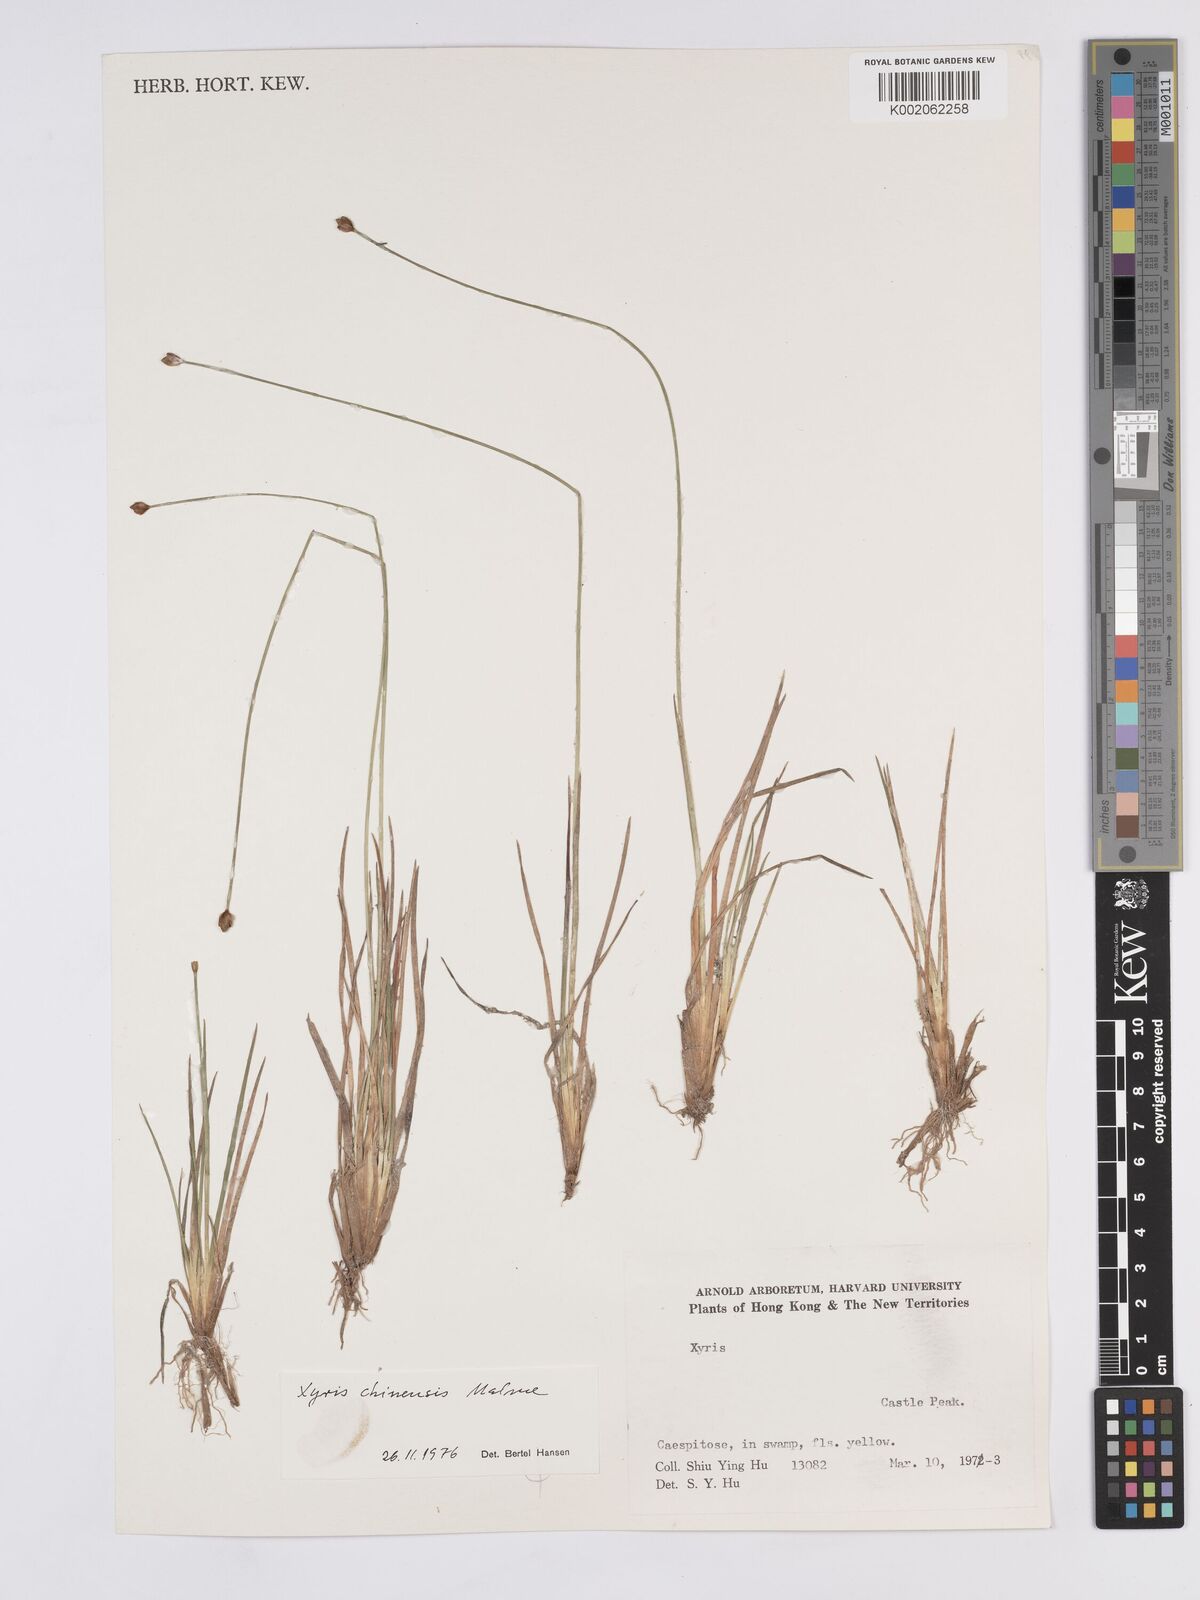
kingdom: Plantae
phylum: Tracheophyta
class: Liliopsida
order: Poales
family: Xyridaceae
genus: Xyris
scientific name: Xyris bancana
